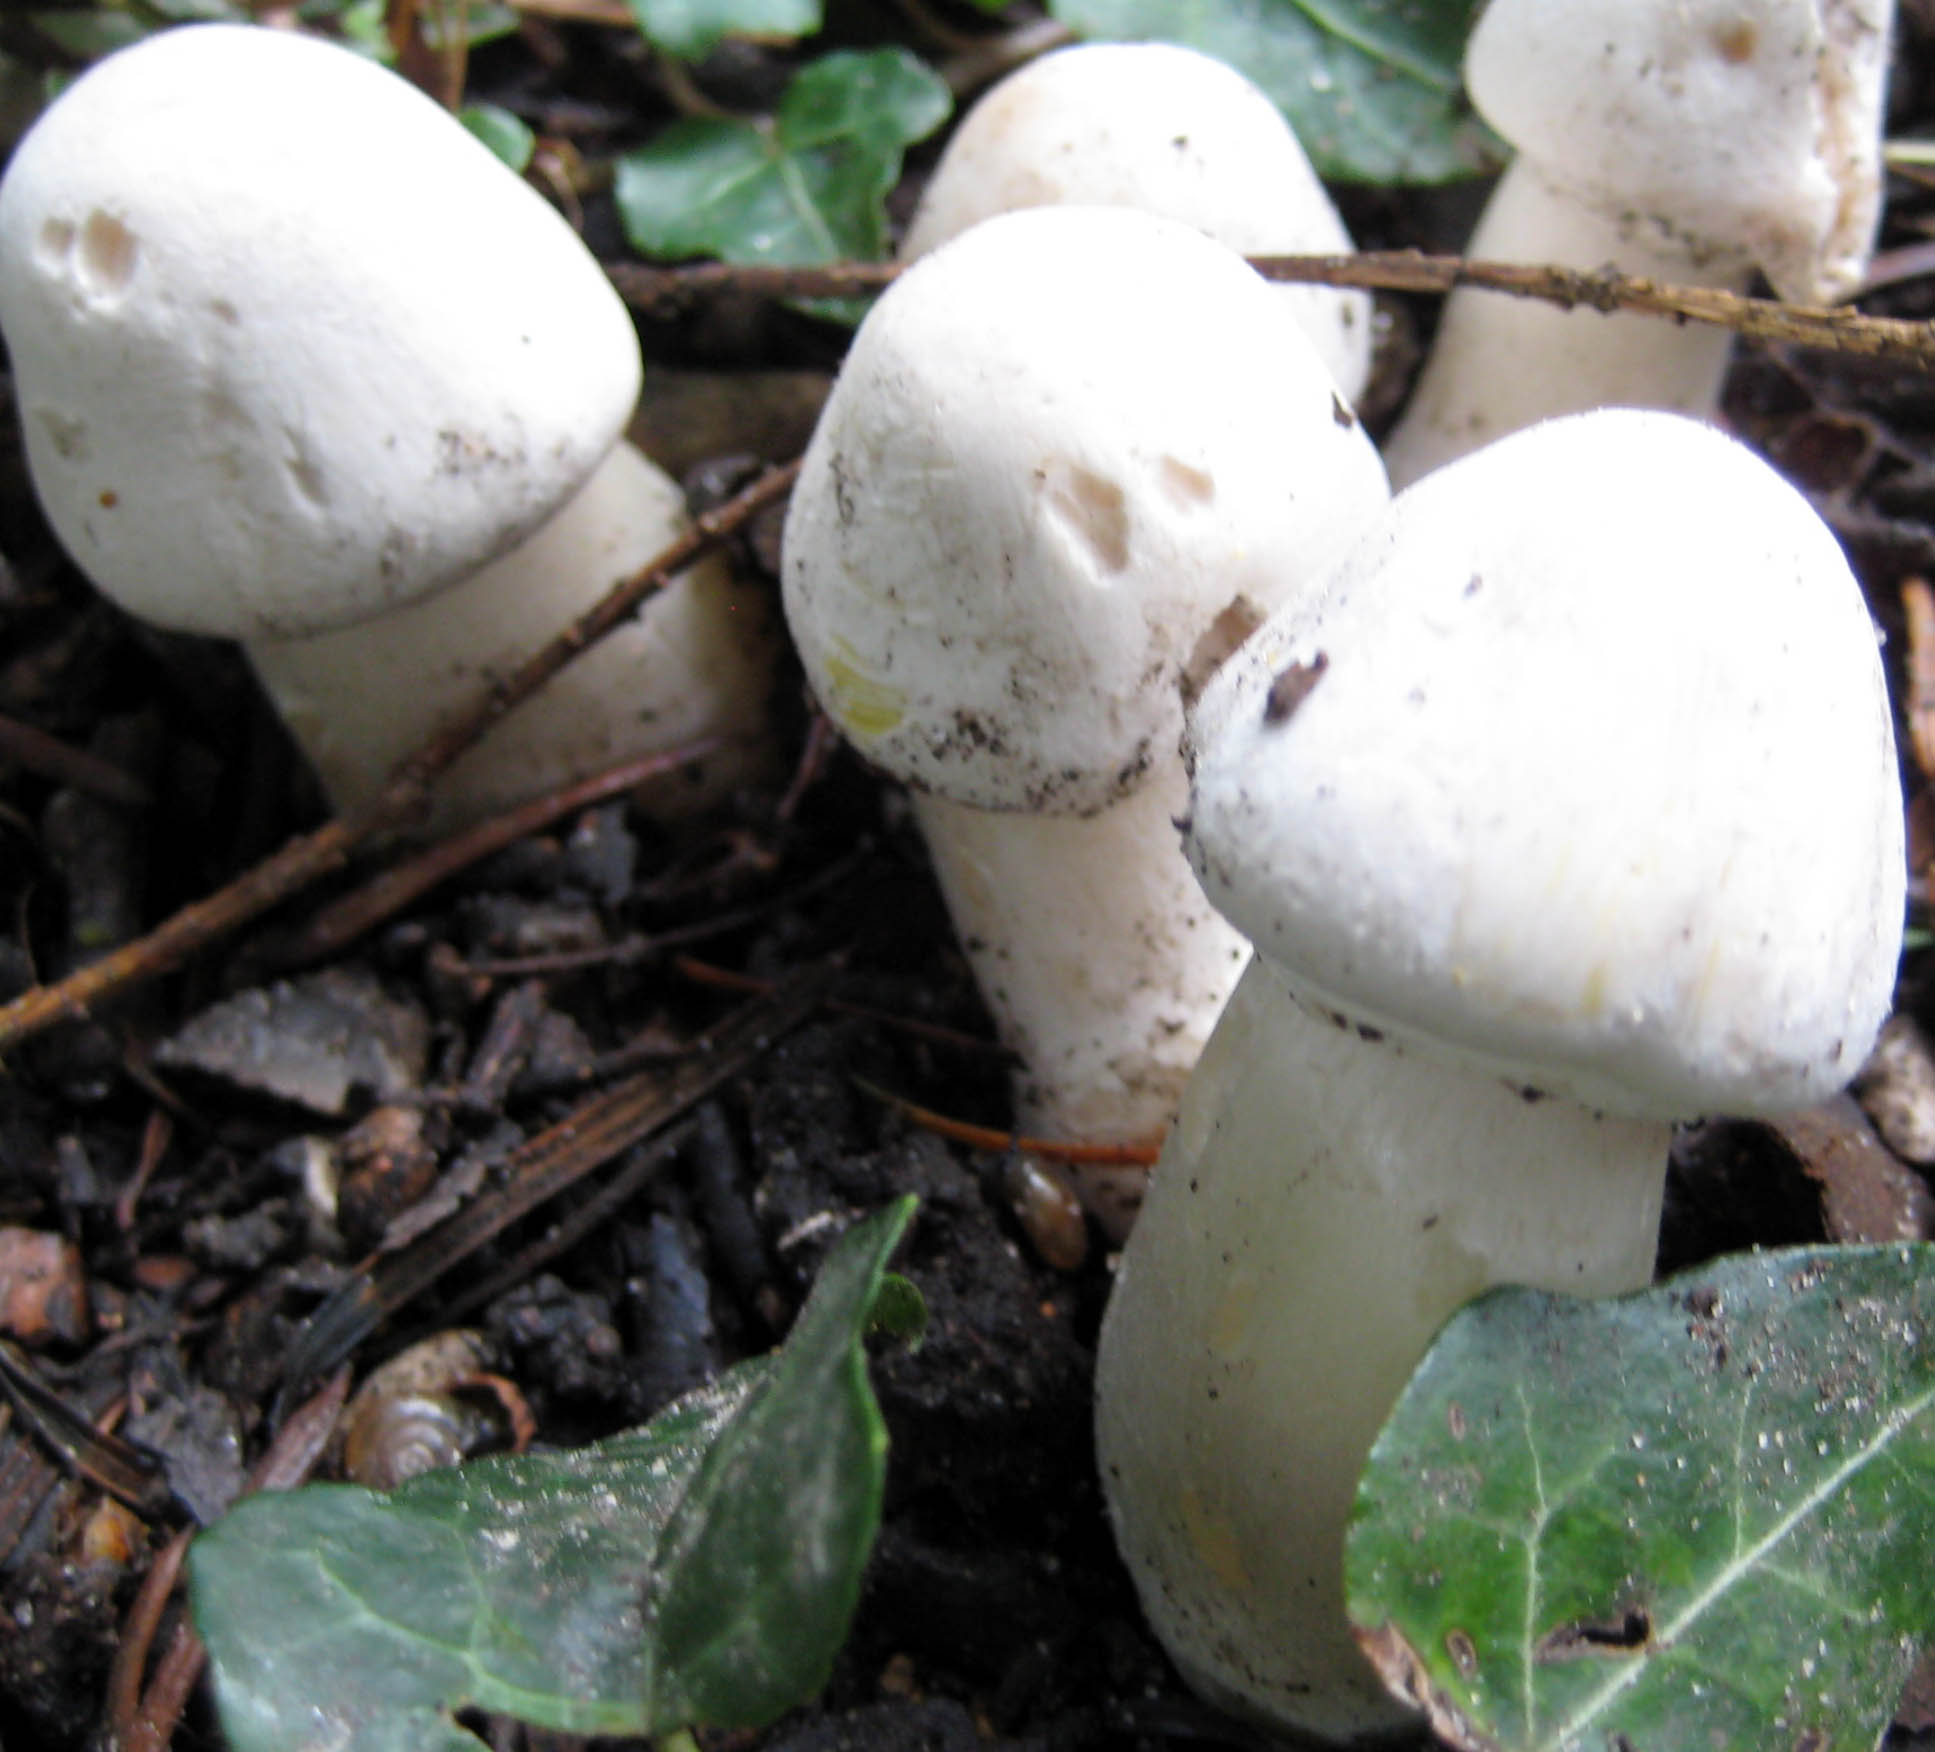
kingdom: Fungi
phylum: Basidiomycota
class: Agaricomycetes
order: Agaricales
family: Agaricaceae
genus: Agaricus
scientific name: Agaricus xanthodermus
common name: karbol-champignon
